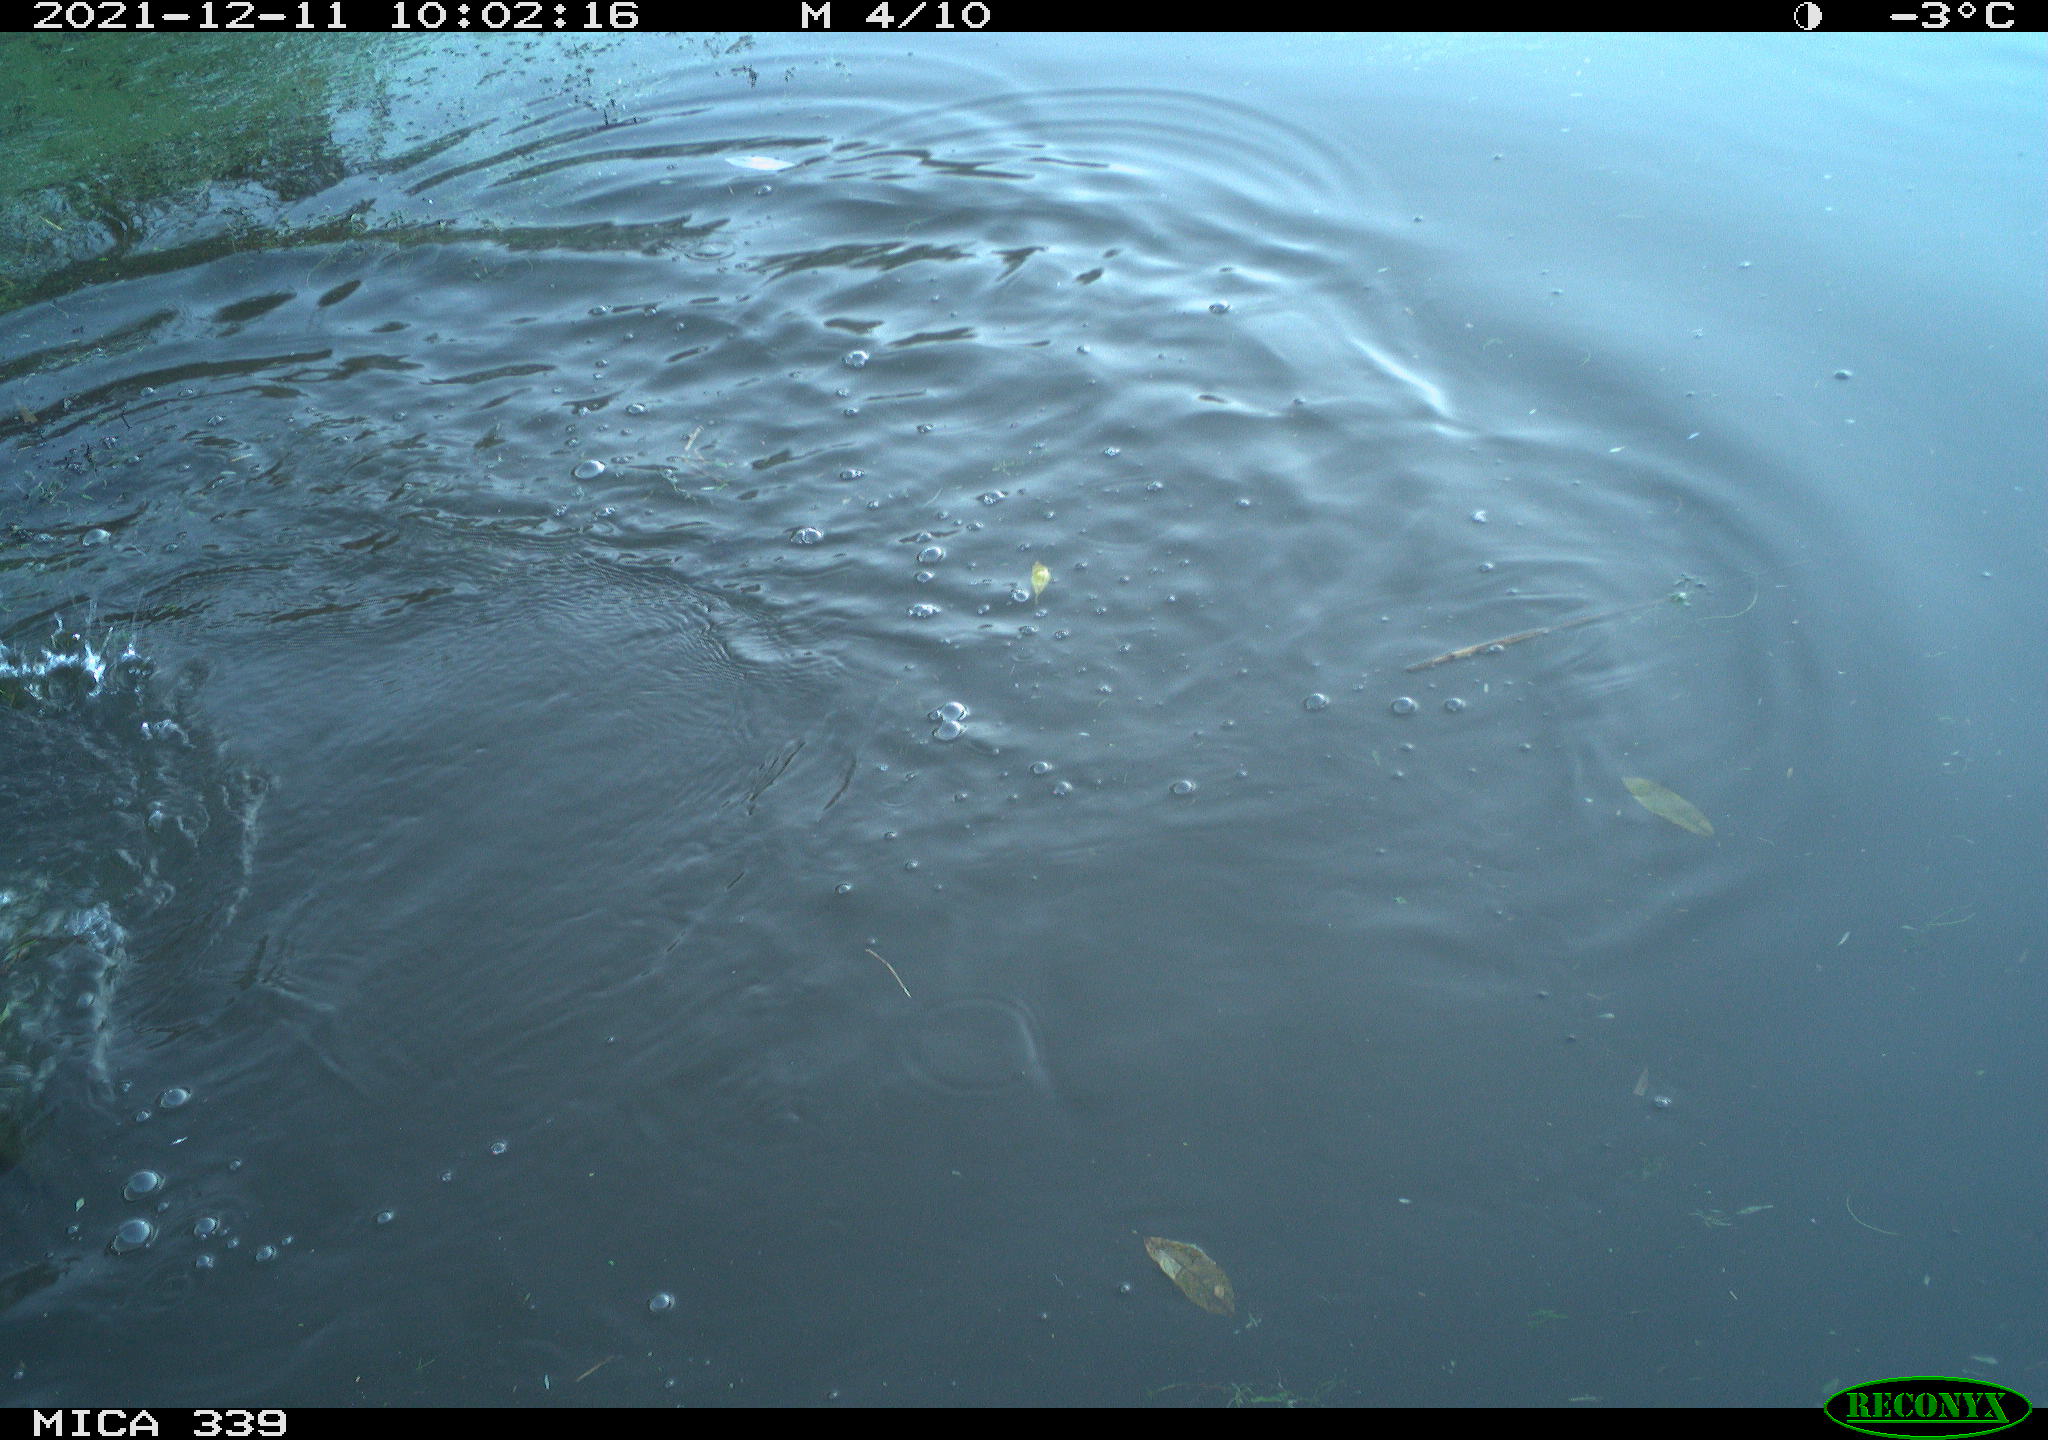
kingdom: Animalia
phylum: Chordata
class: Aves
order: Suliformes
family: Phalacrocoracidae
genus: Phalacrocorax
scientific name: Phalacrocorax carbo
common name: Great cormorant
